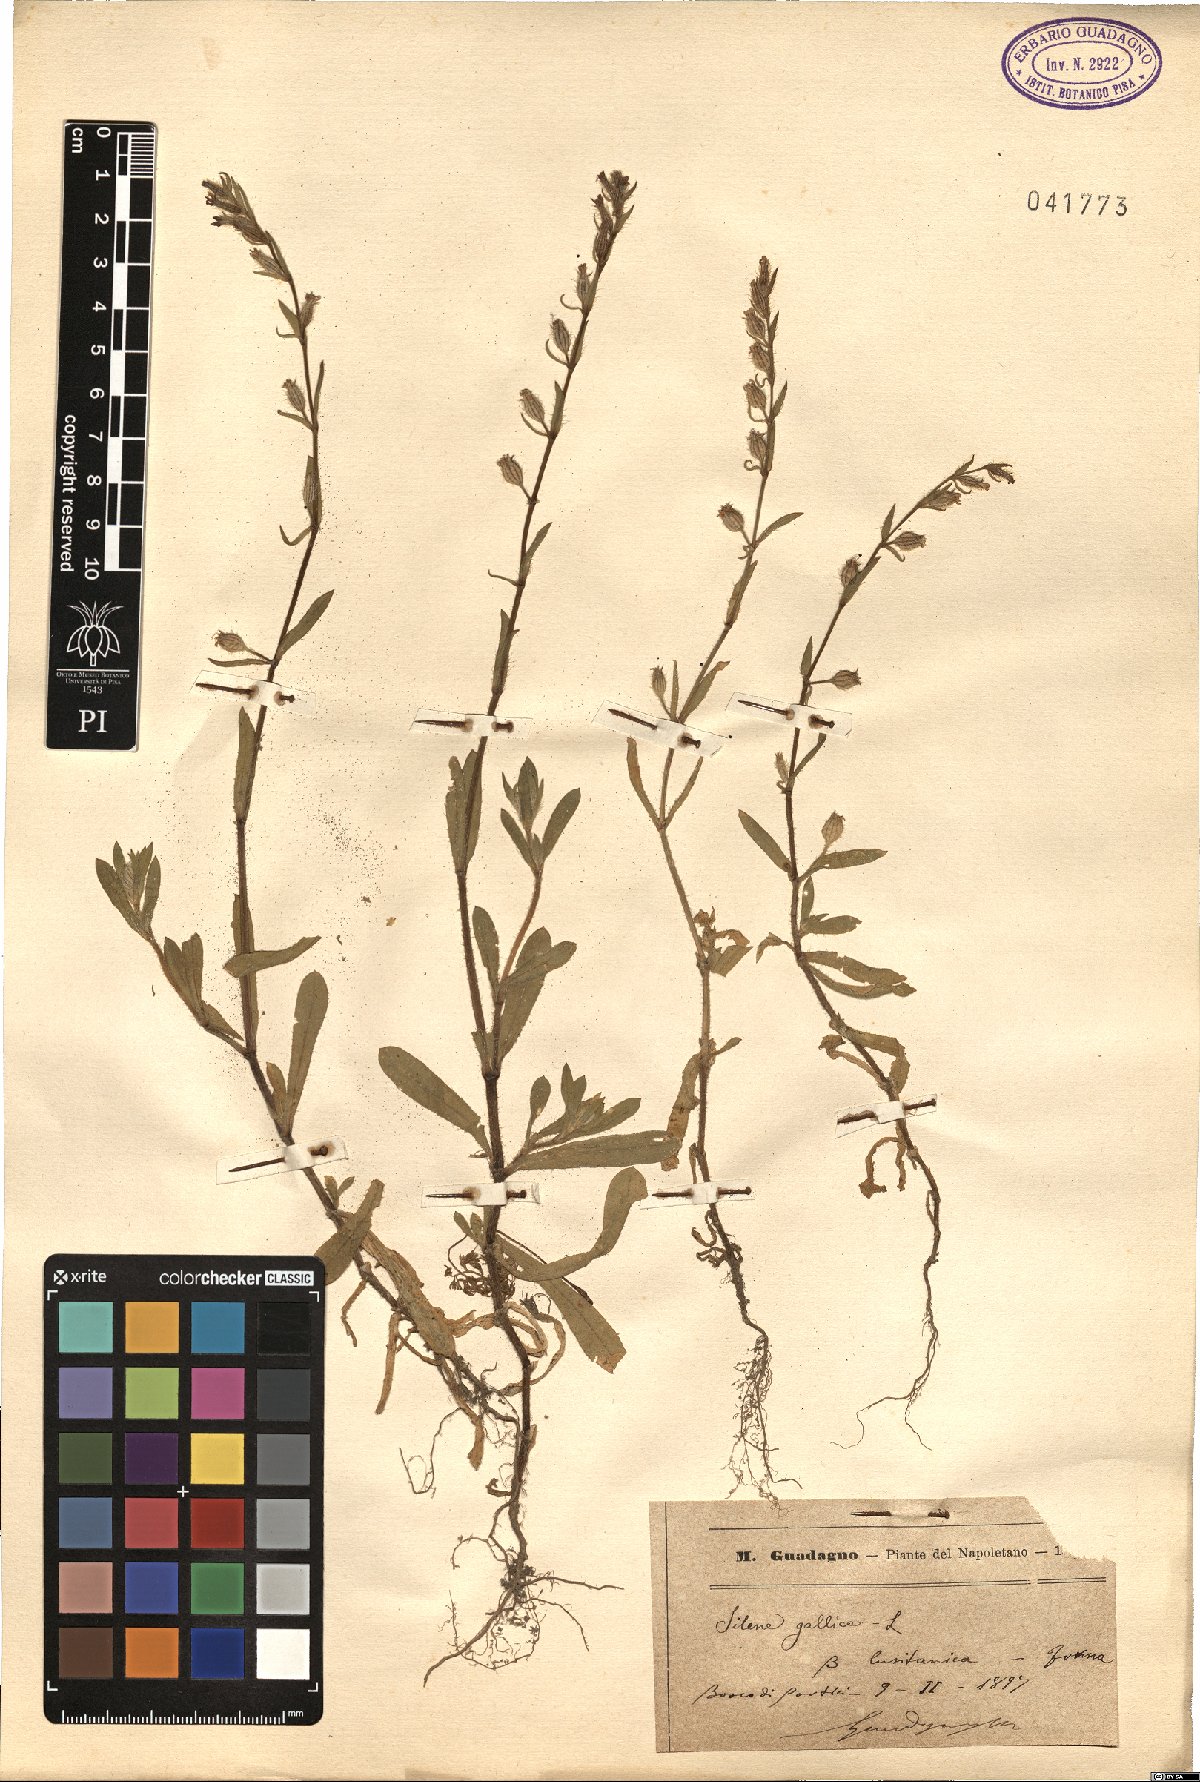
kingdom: Plantae
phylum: Tracheophyta
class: Magnoliopsida
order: Caryophyllales
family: Caryophyllaceae
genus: Silene
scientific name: Silene gallica
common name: Small-flowered catchfly
